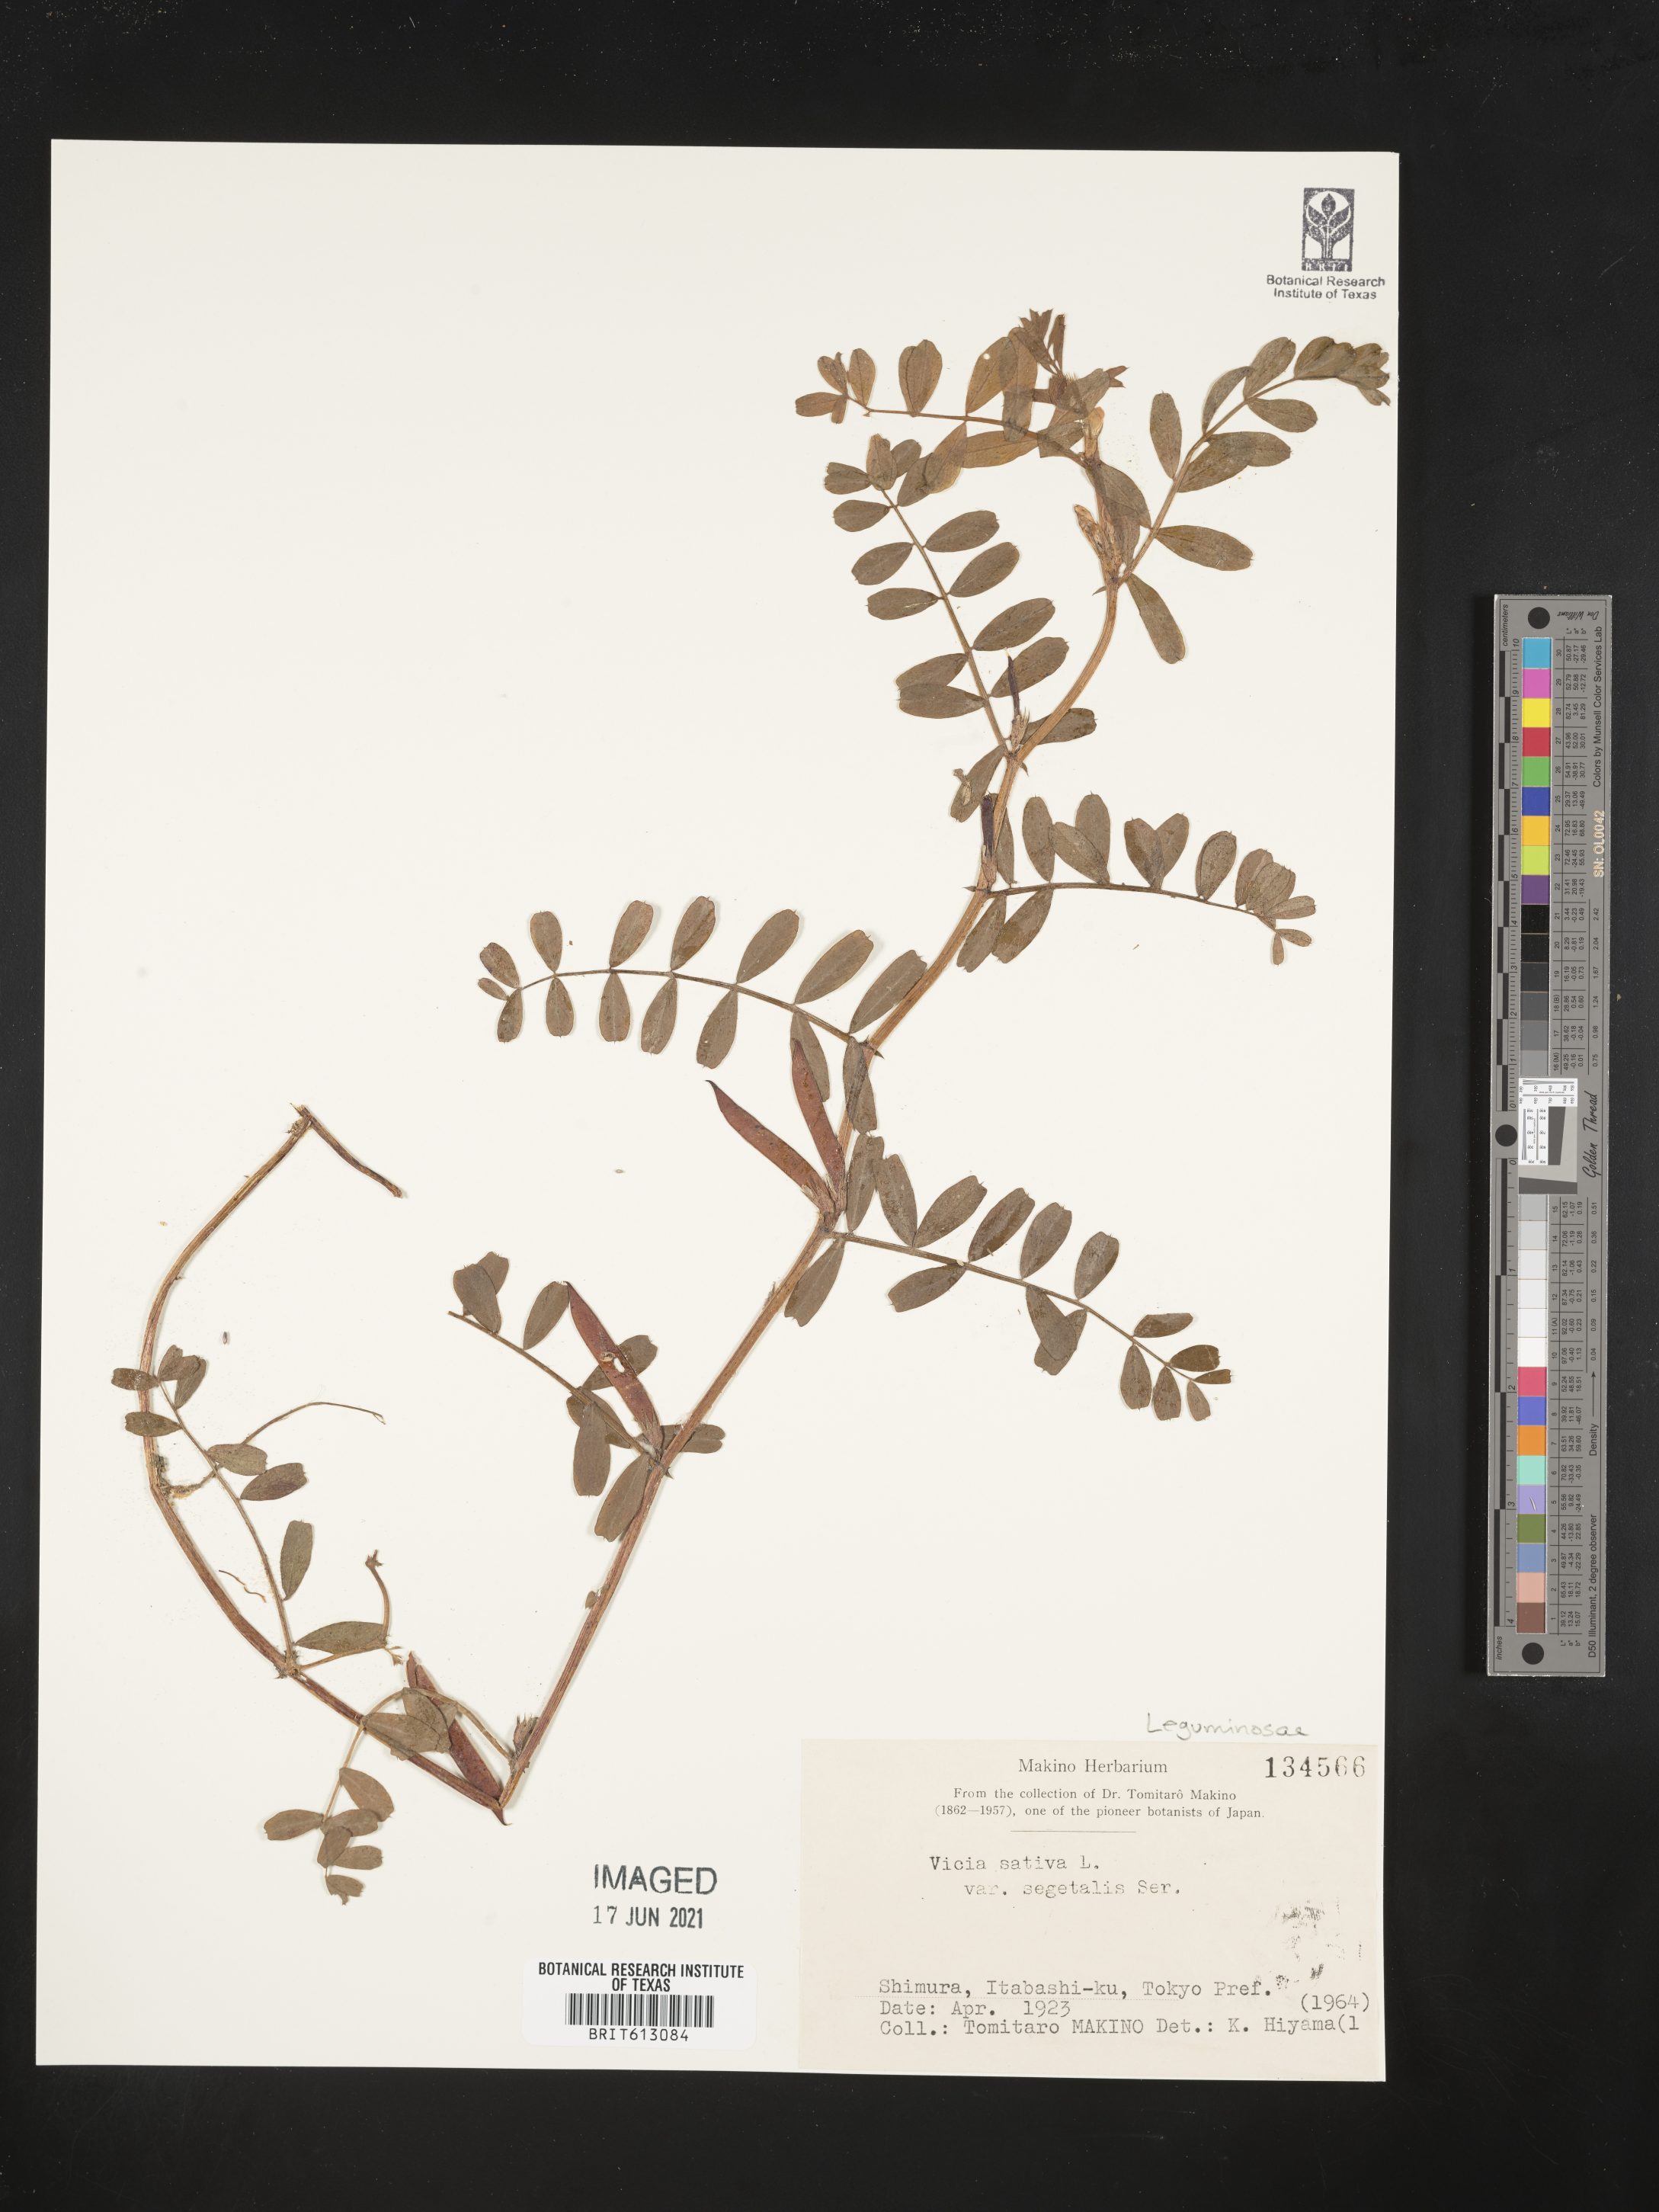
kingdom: Plantae
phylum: Tracheophyta
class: Magnoliopsida
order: Fabales
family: Fabaceae
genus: Vicia
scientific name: Vicia sativa
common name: Garden vetch
